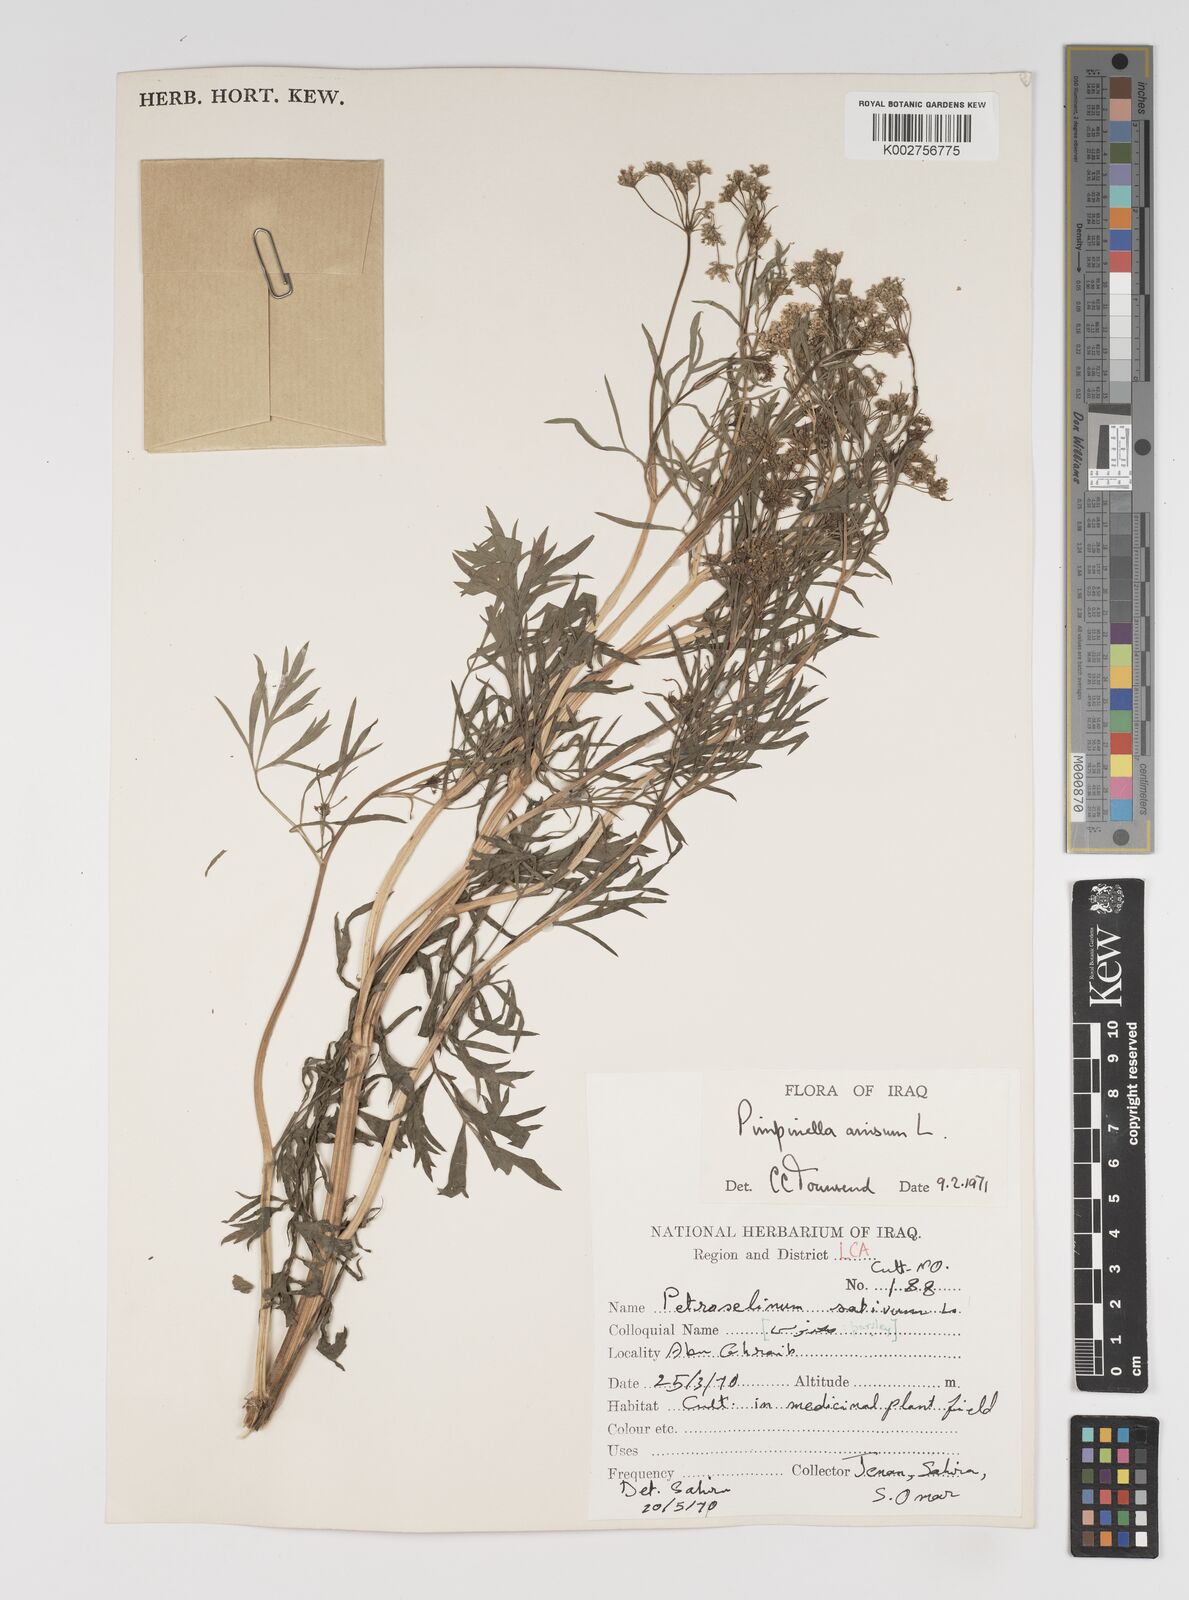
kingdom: Plantae
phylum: Tracheophyta
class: Magnoliopsida
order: Apiales
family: Apiaceae
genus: Pimpinella
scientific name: Pimpinella anisum
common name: Anise burnet saxifrage
